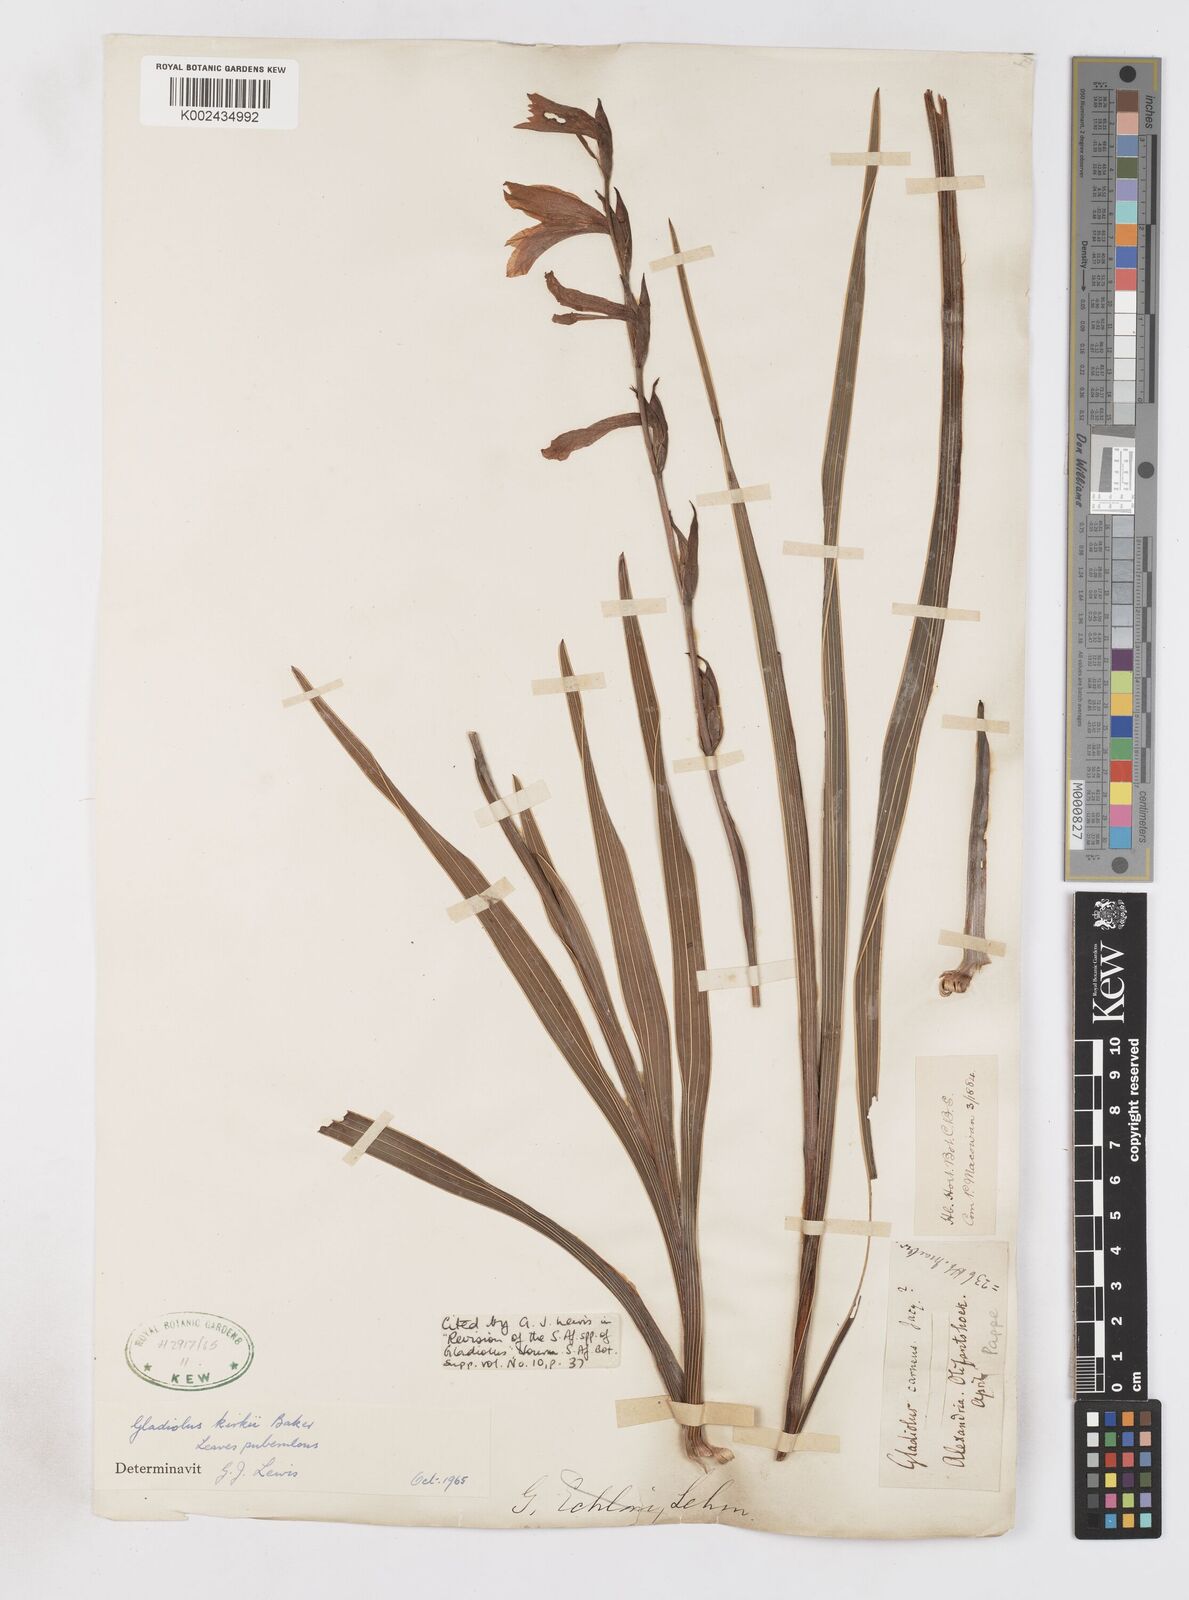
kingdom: Plantae
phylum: Tracheophyta
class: Liliopsida
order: Asparagales
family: Iridaceae
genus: Gladiolus
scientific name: Gladiolus ochroleucus
